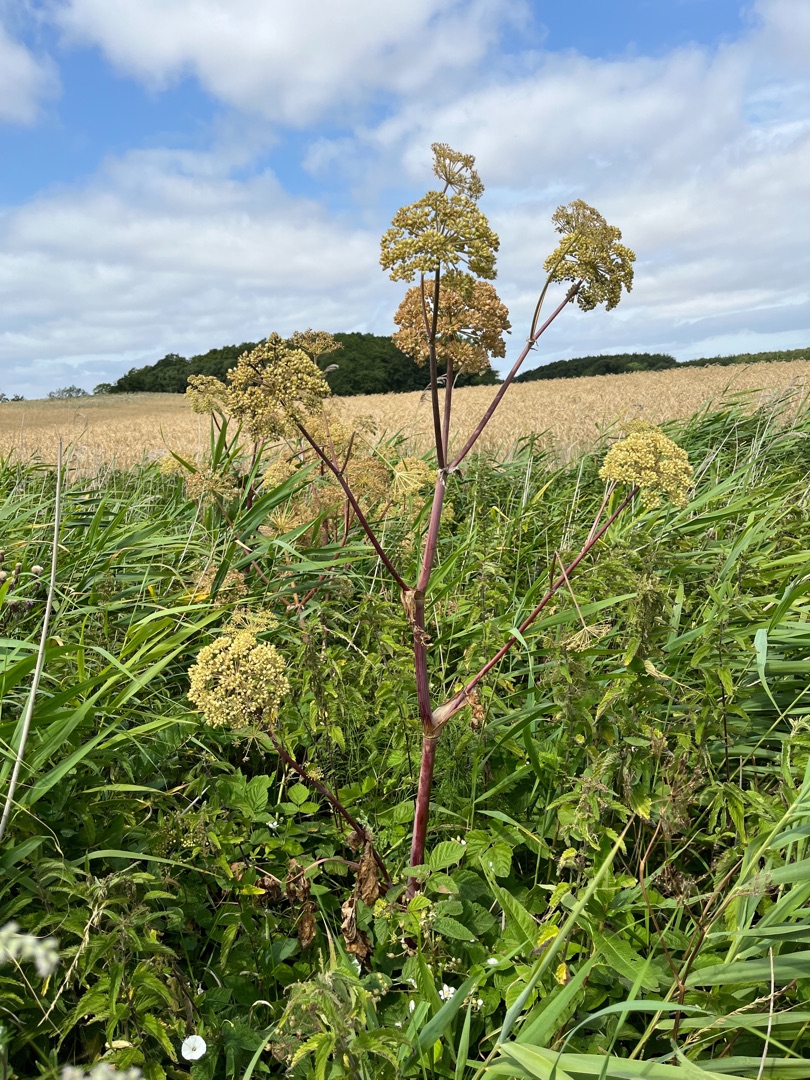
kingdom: Plantae
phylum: Tracheophyta
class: Magnoliopsida
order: Apiales
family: Apiaceae
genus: Angelica
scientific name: Angelica archangelica
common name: Kvan
